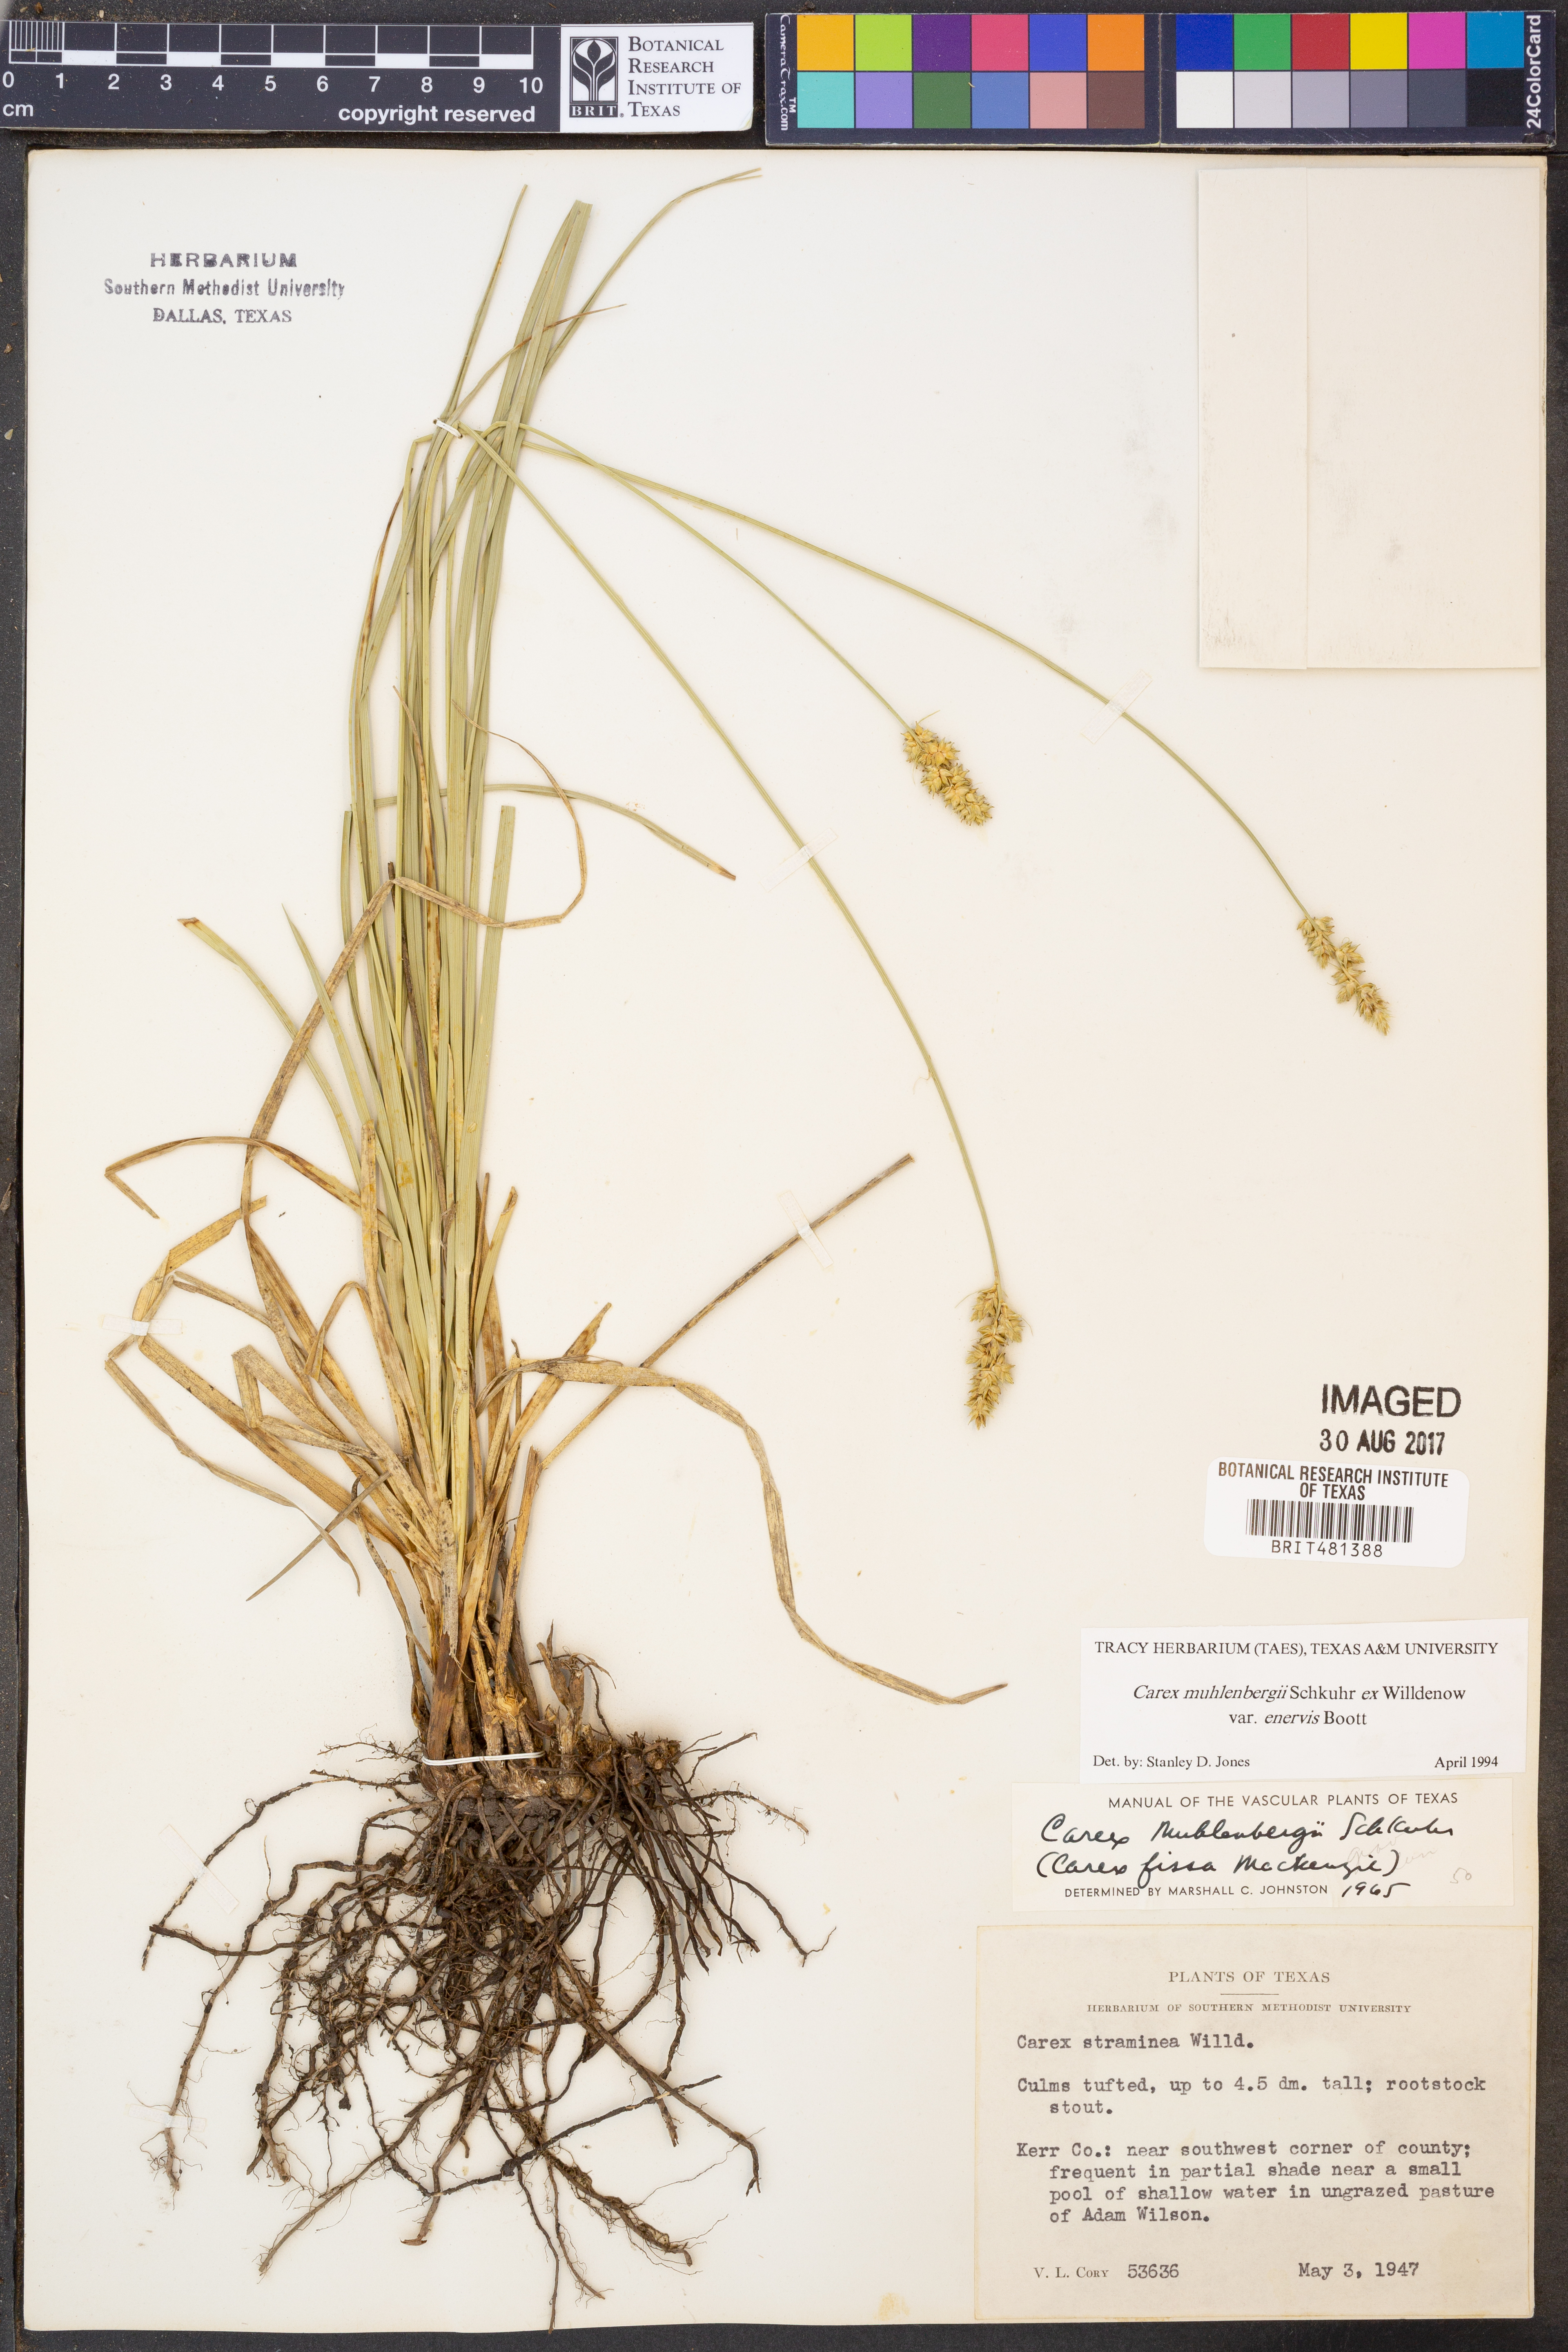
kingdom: Plantae
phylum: Tracheophyta
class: Liliopsida
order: Poales
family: Cyperaceae
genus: Carex
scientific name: Carex vulpinoidea
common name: American fox-sedge
